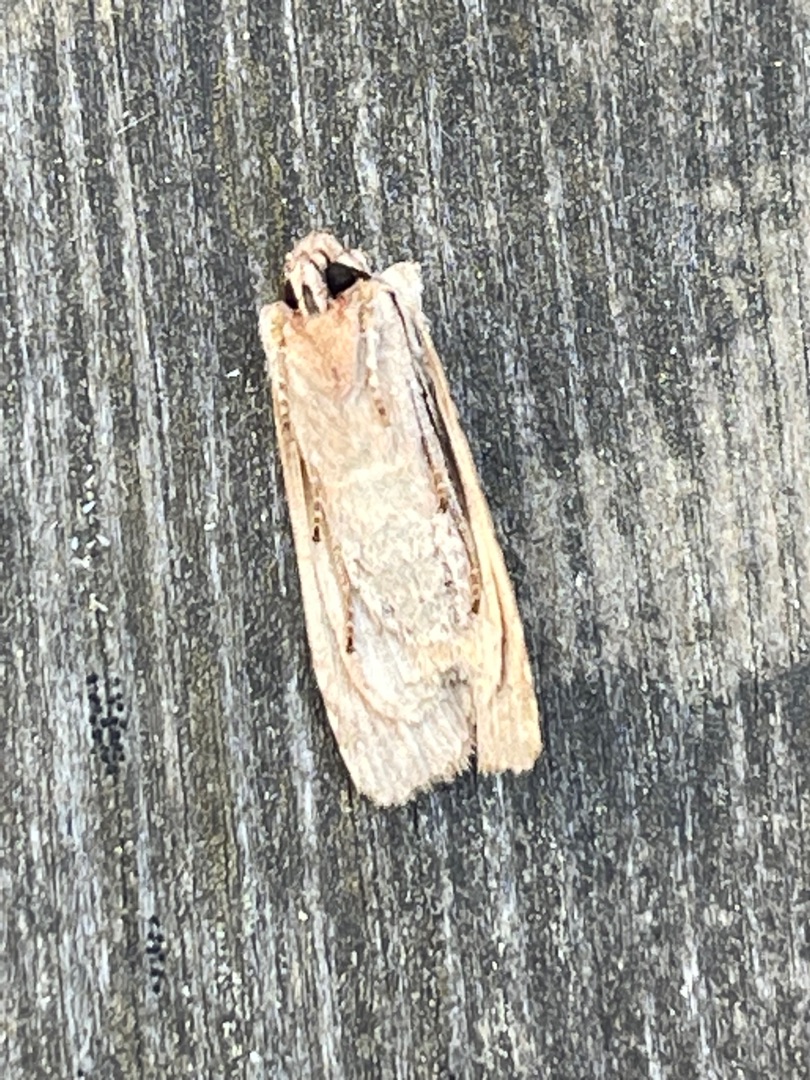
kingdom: Animalia
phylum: Arthropoda
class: Insecta
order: Lepidoptera
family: Noctuidae
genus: Lithophane
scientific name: Lithophane socia
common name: Alliance-stenugle
